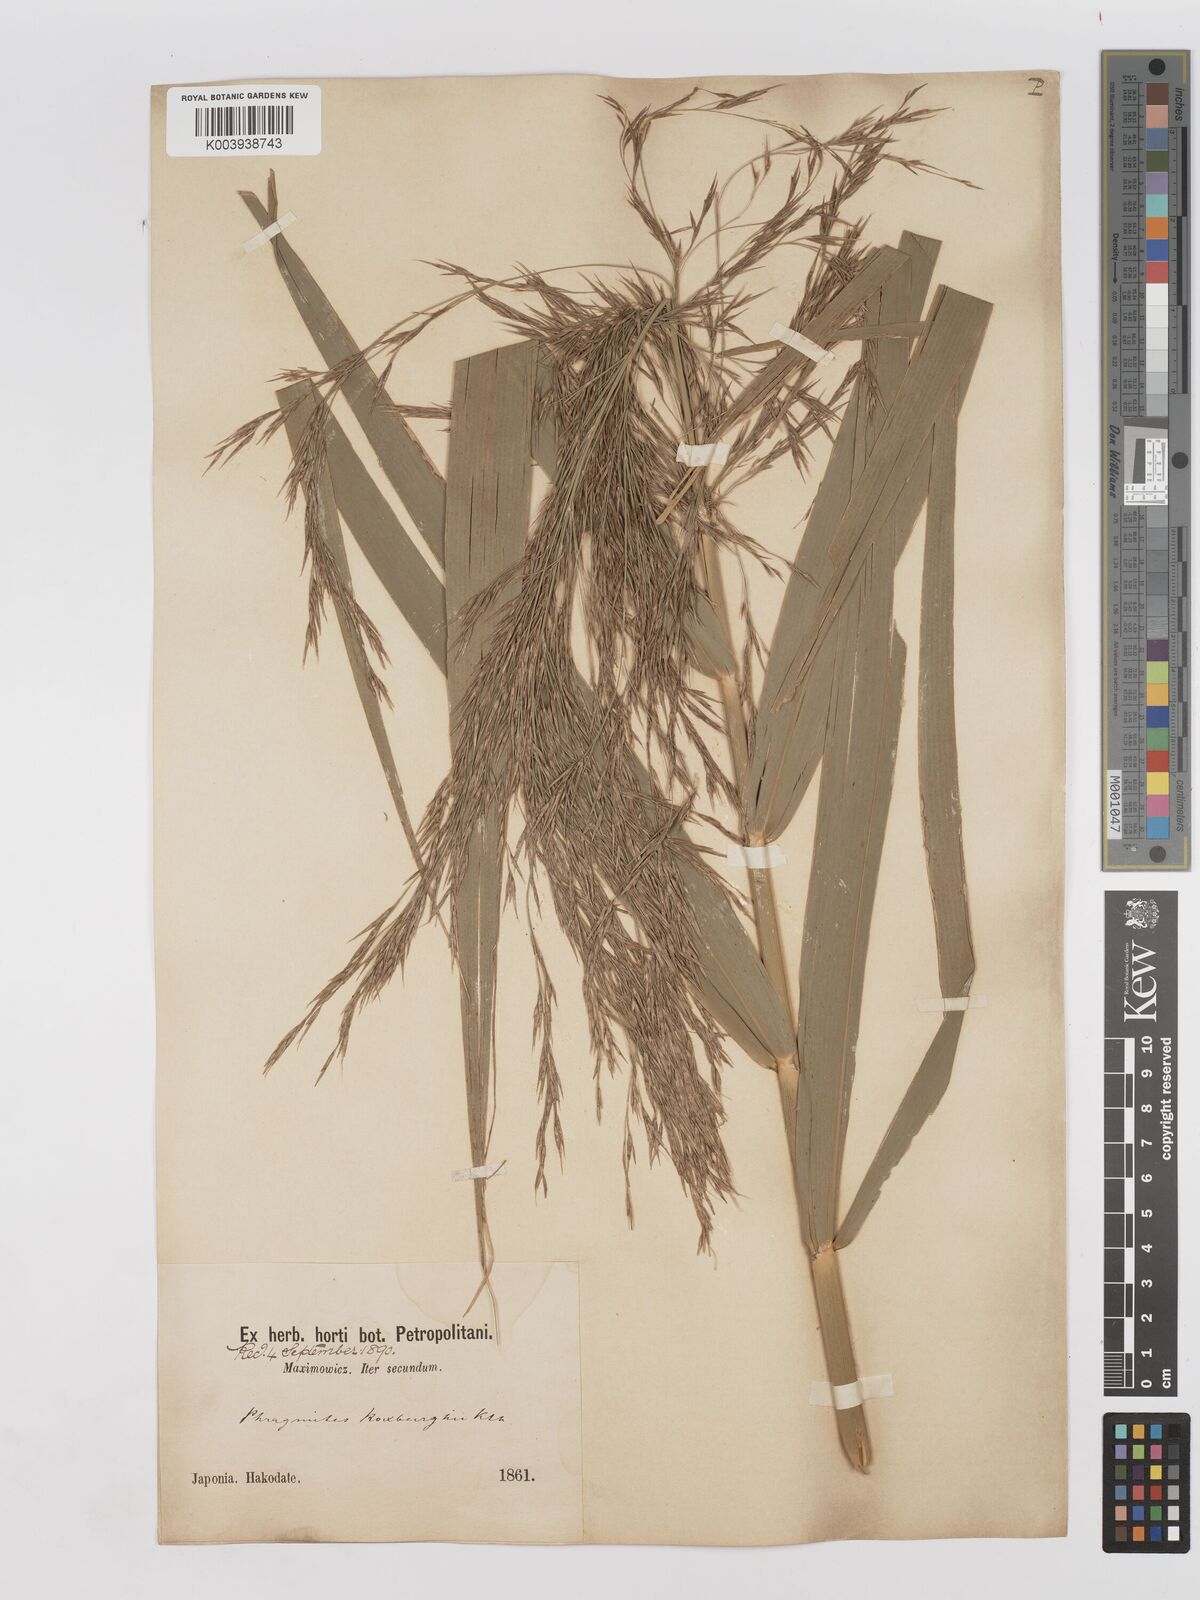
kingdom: Plantae
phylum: Tracheophyta
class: Liliopsida
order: Poales
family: Poaceae
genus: Phragmites
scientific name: Phragmites karka
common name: Tropical reed
